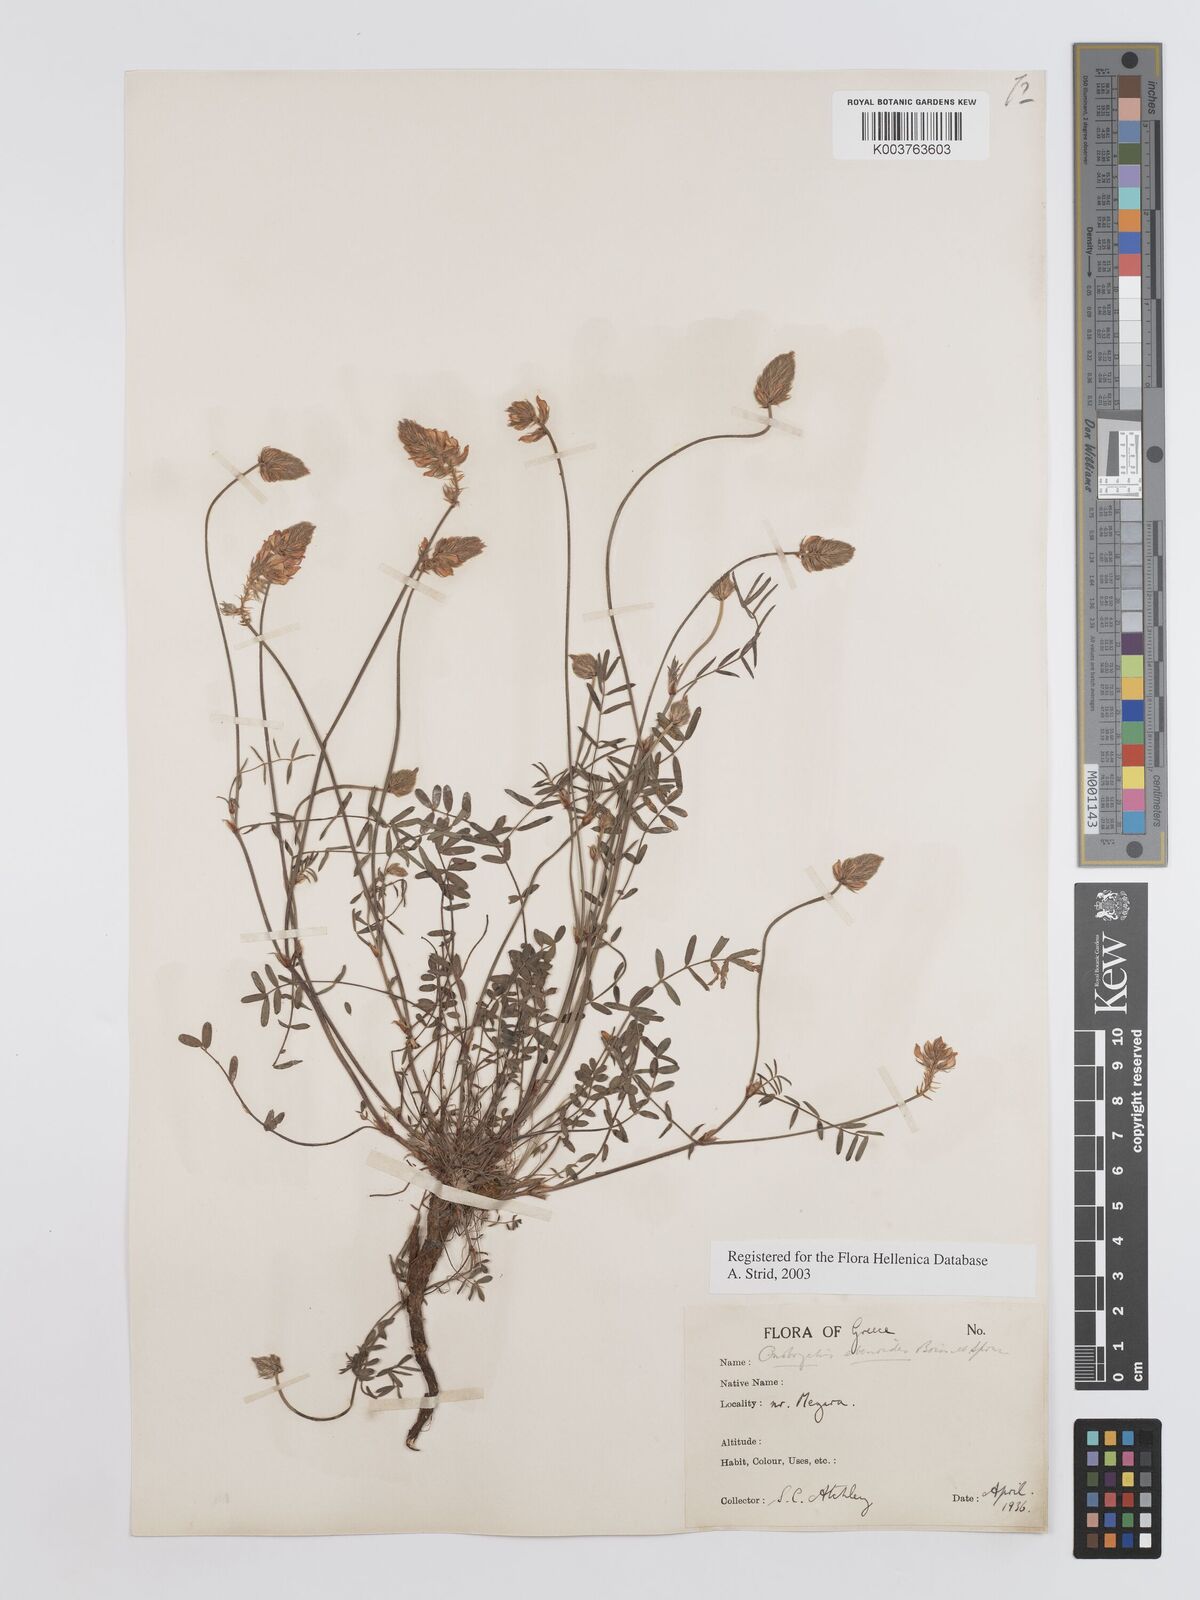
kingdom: Plantae
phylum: Tracheophyta
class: Magnoliopsida
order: Fabales
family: Fabaceae
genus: Onobrychis
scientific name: Onobrychis ebenoides
